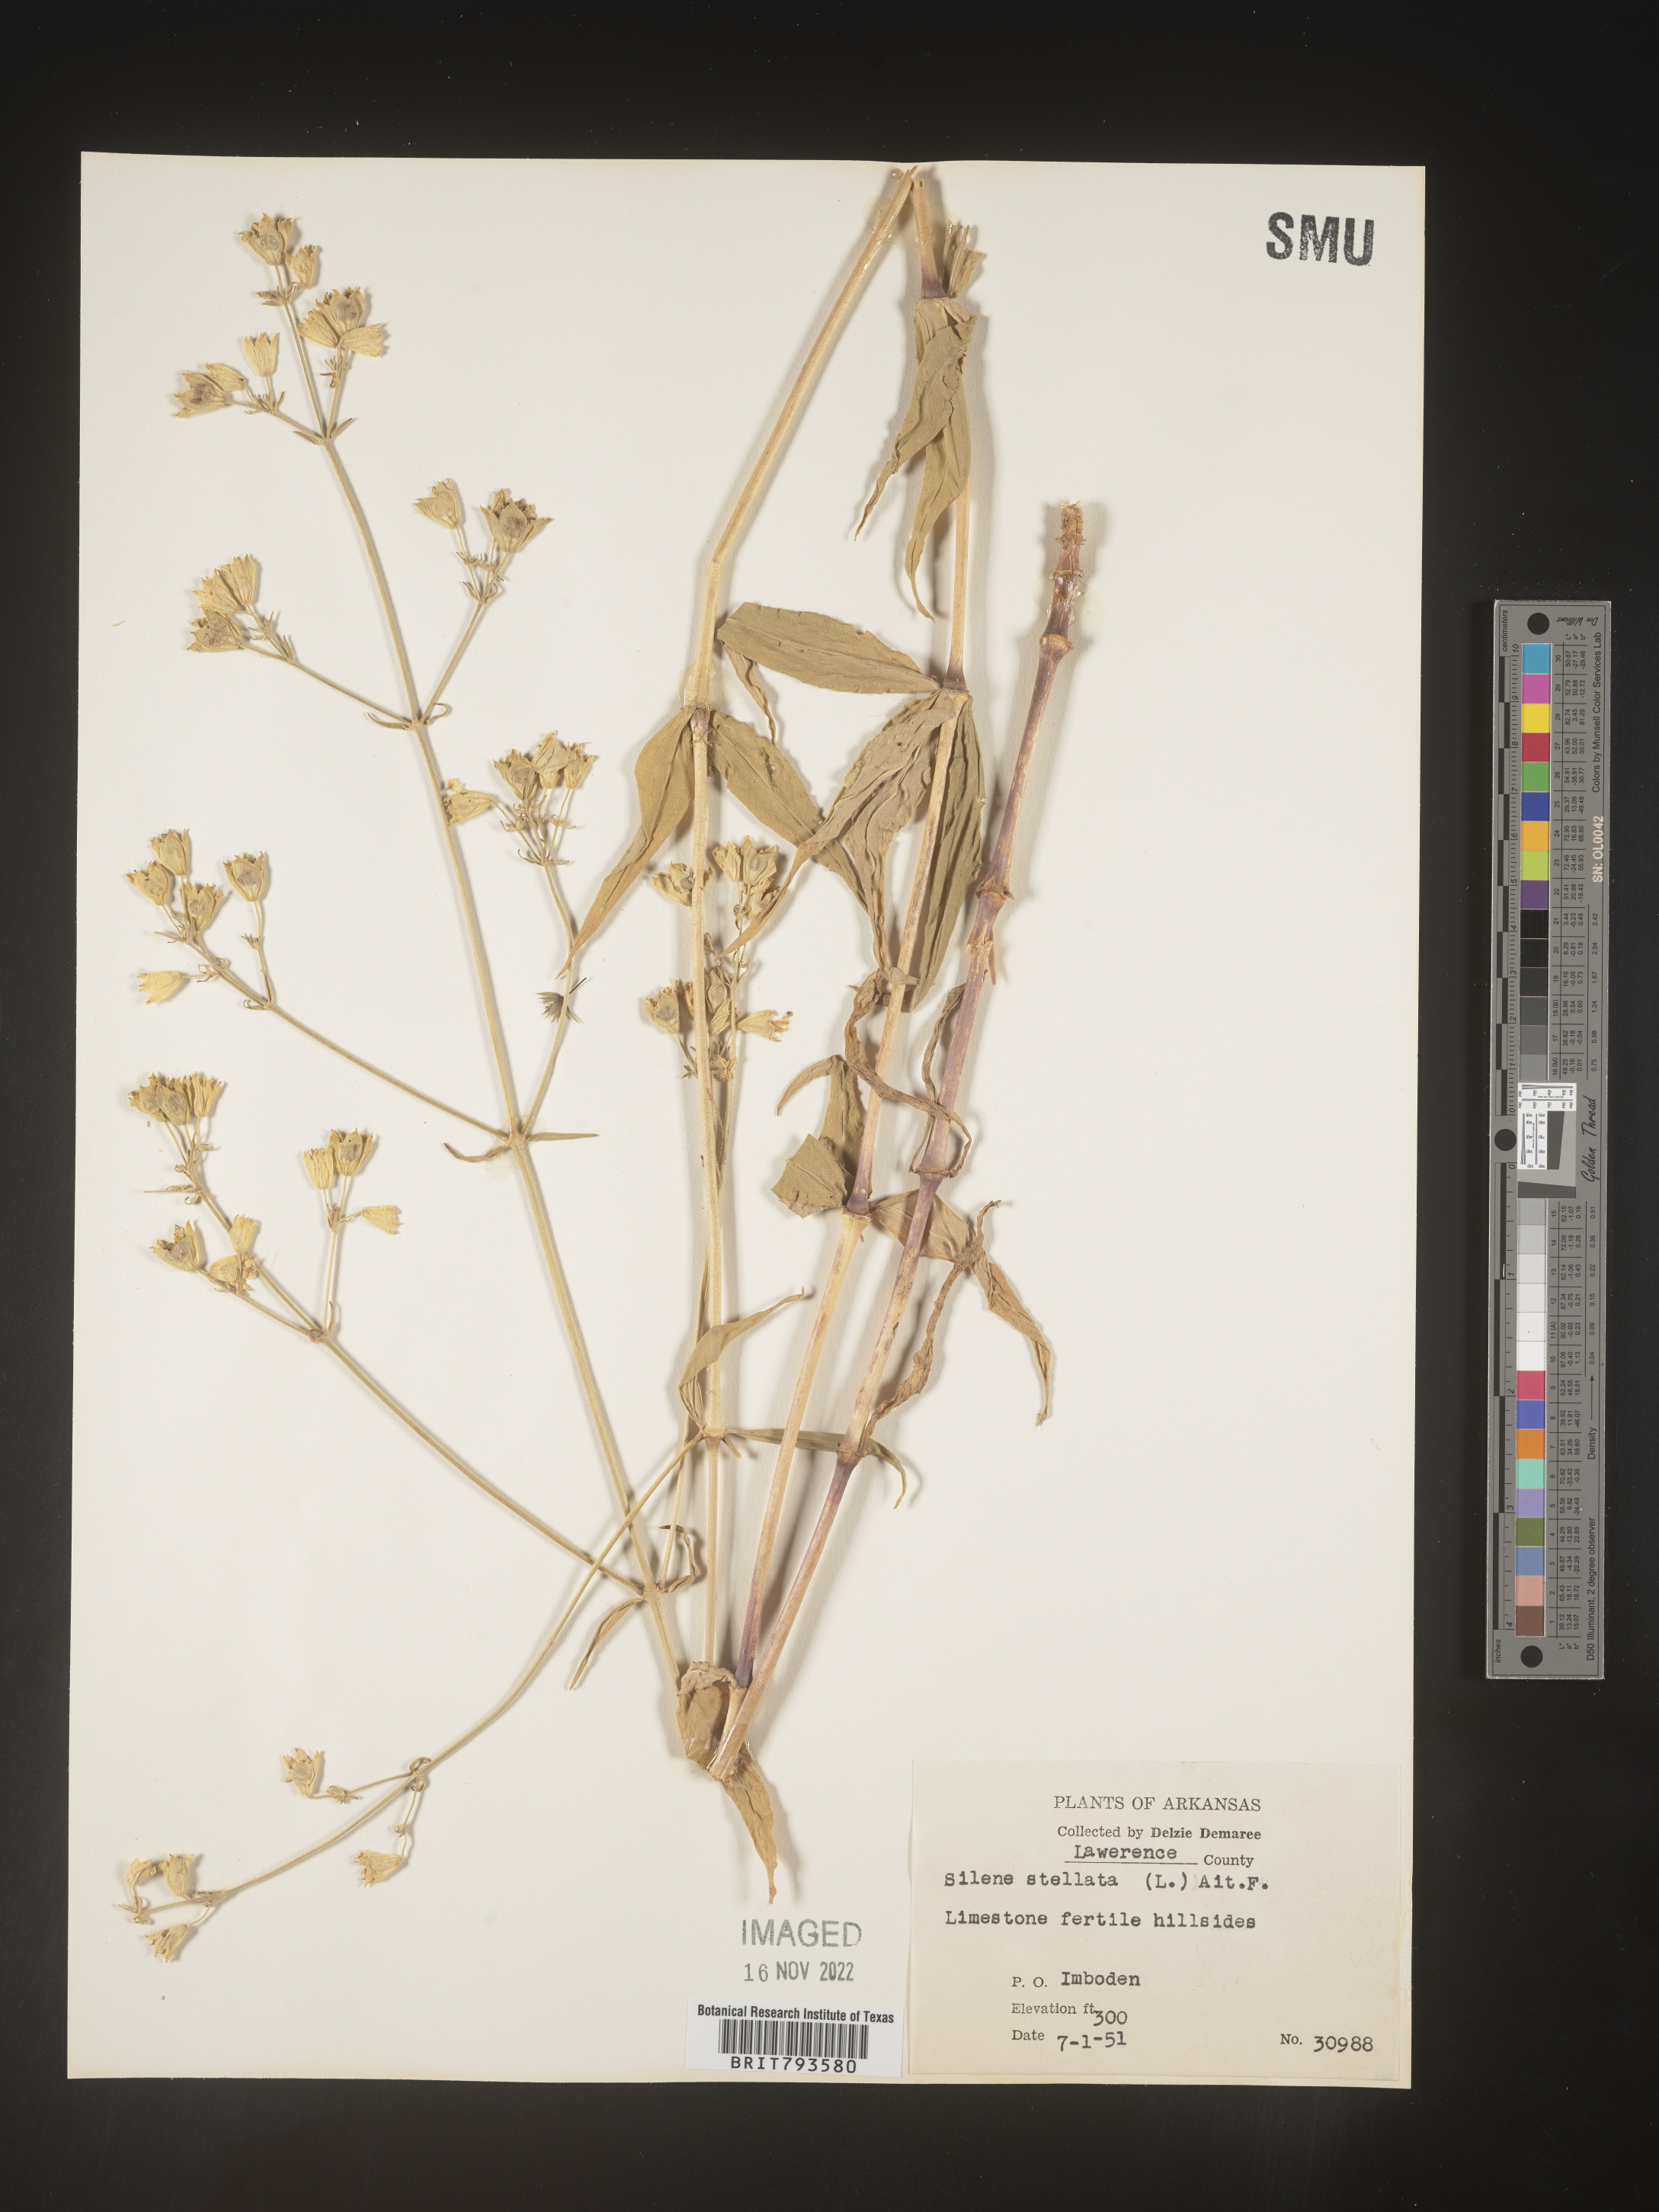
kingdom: Plantae
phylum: Tracheophyta
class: Magnoliopsida
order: Caryophyllales
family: Caryophyllaceae
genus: Silene
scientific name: Silene stellata
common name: Starry campion
